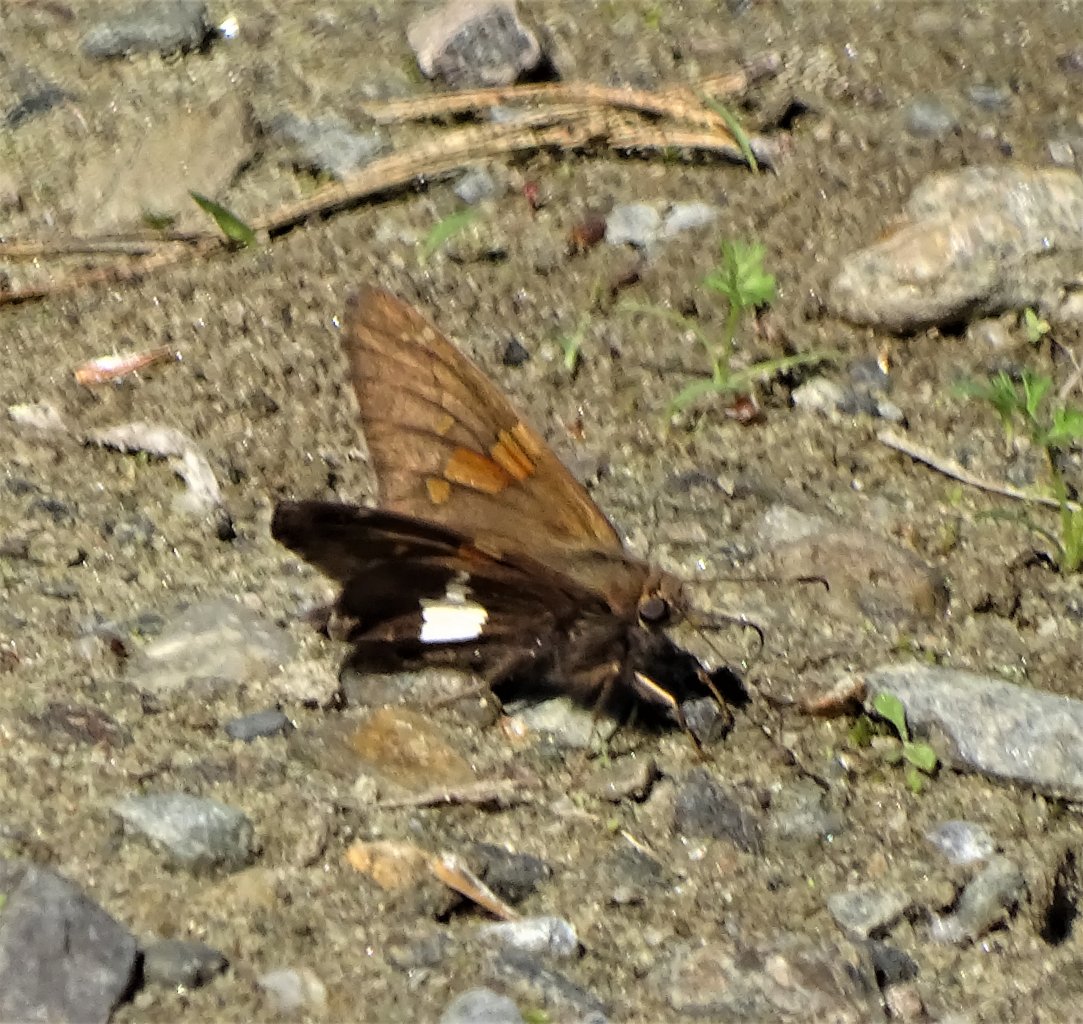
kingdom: Animalia
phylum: Arthropoda
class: Insecta
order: Lepidoptera
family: Hesperiidae
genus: Epargyreus
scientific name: Epargyreus clarus
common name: Silver-spotted Skipper
